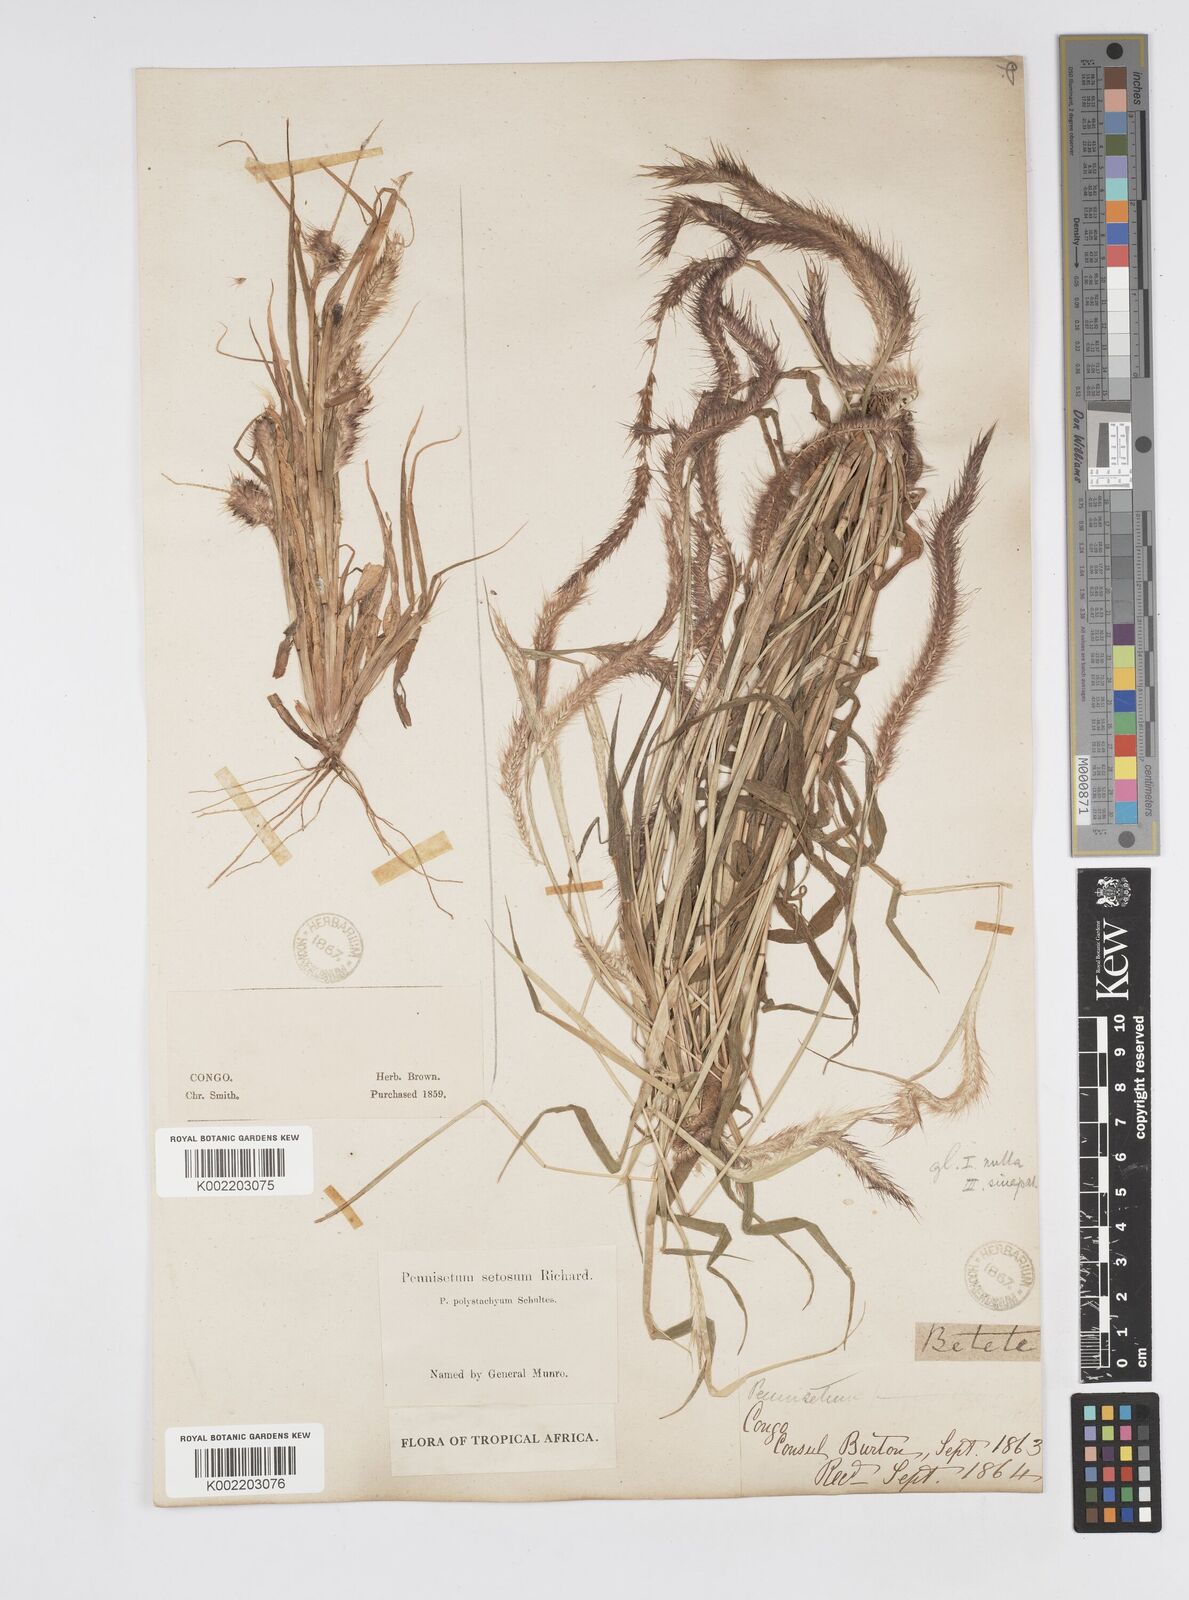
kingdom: Plantae
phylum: Tracheophyta
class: Liliopsida
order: Poales
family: Poaceae
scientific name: Poaceae
